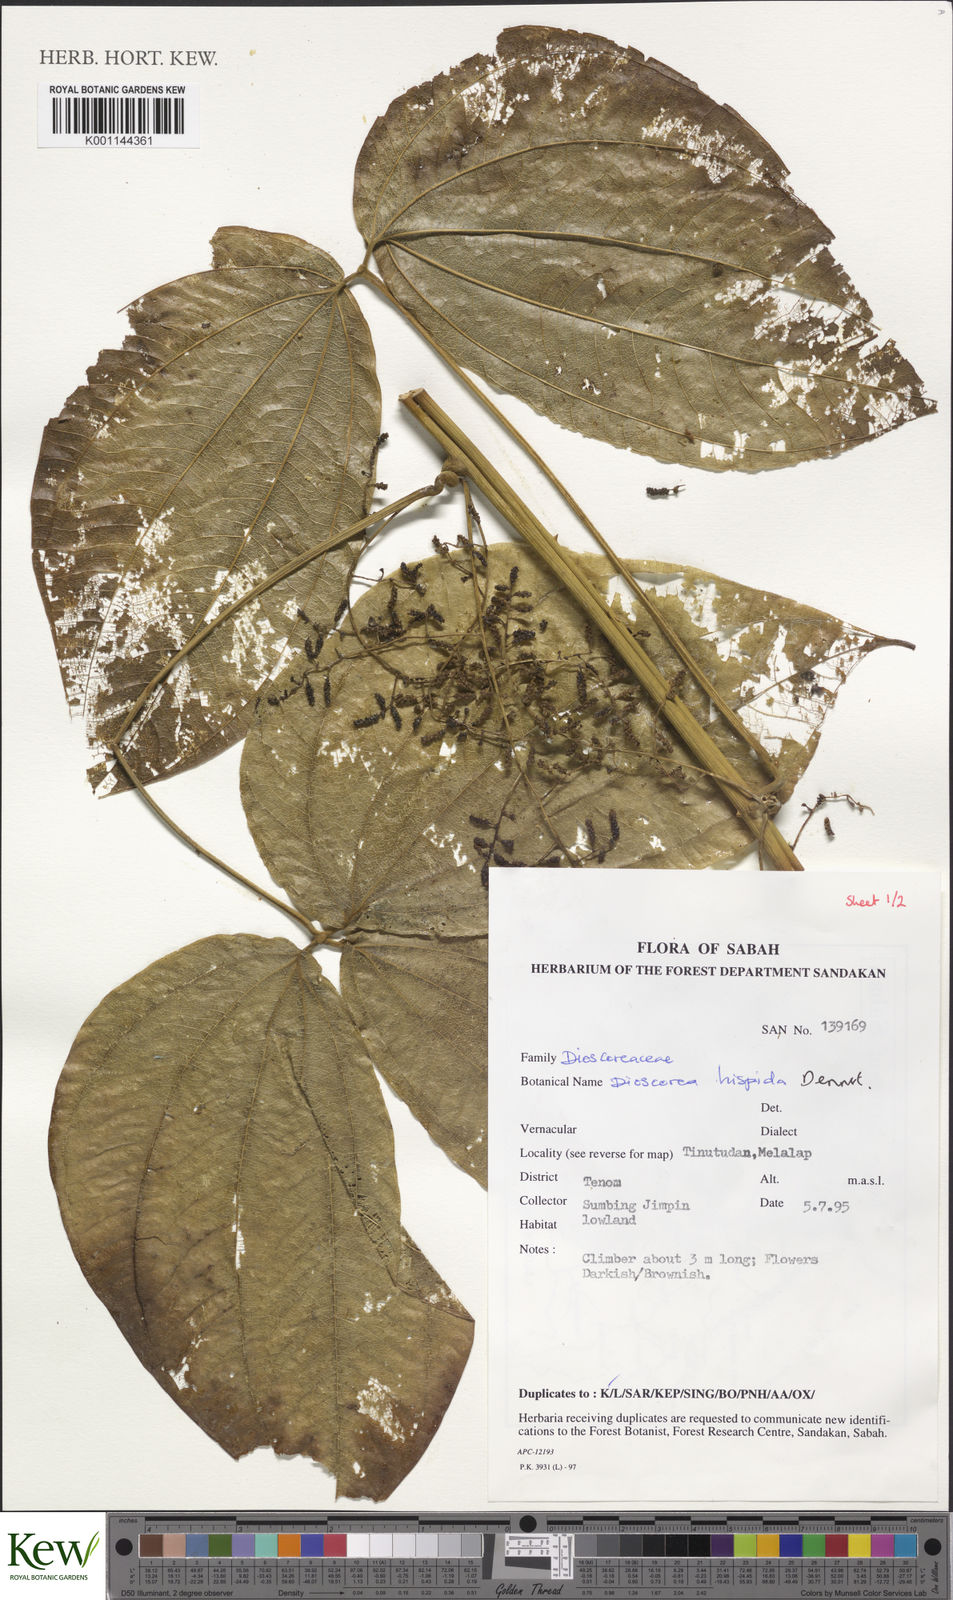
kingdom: Plantae
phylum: Tracheophyta
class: Liliopsida
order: Dioscoreales
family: Dioscoreaceae
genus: Dioscorea
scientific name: Dioscorea hispida
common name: Asiatic bitter yam
